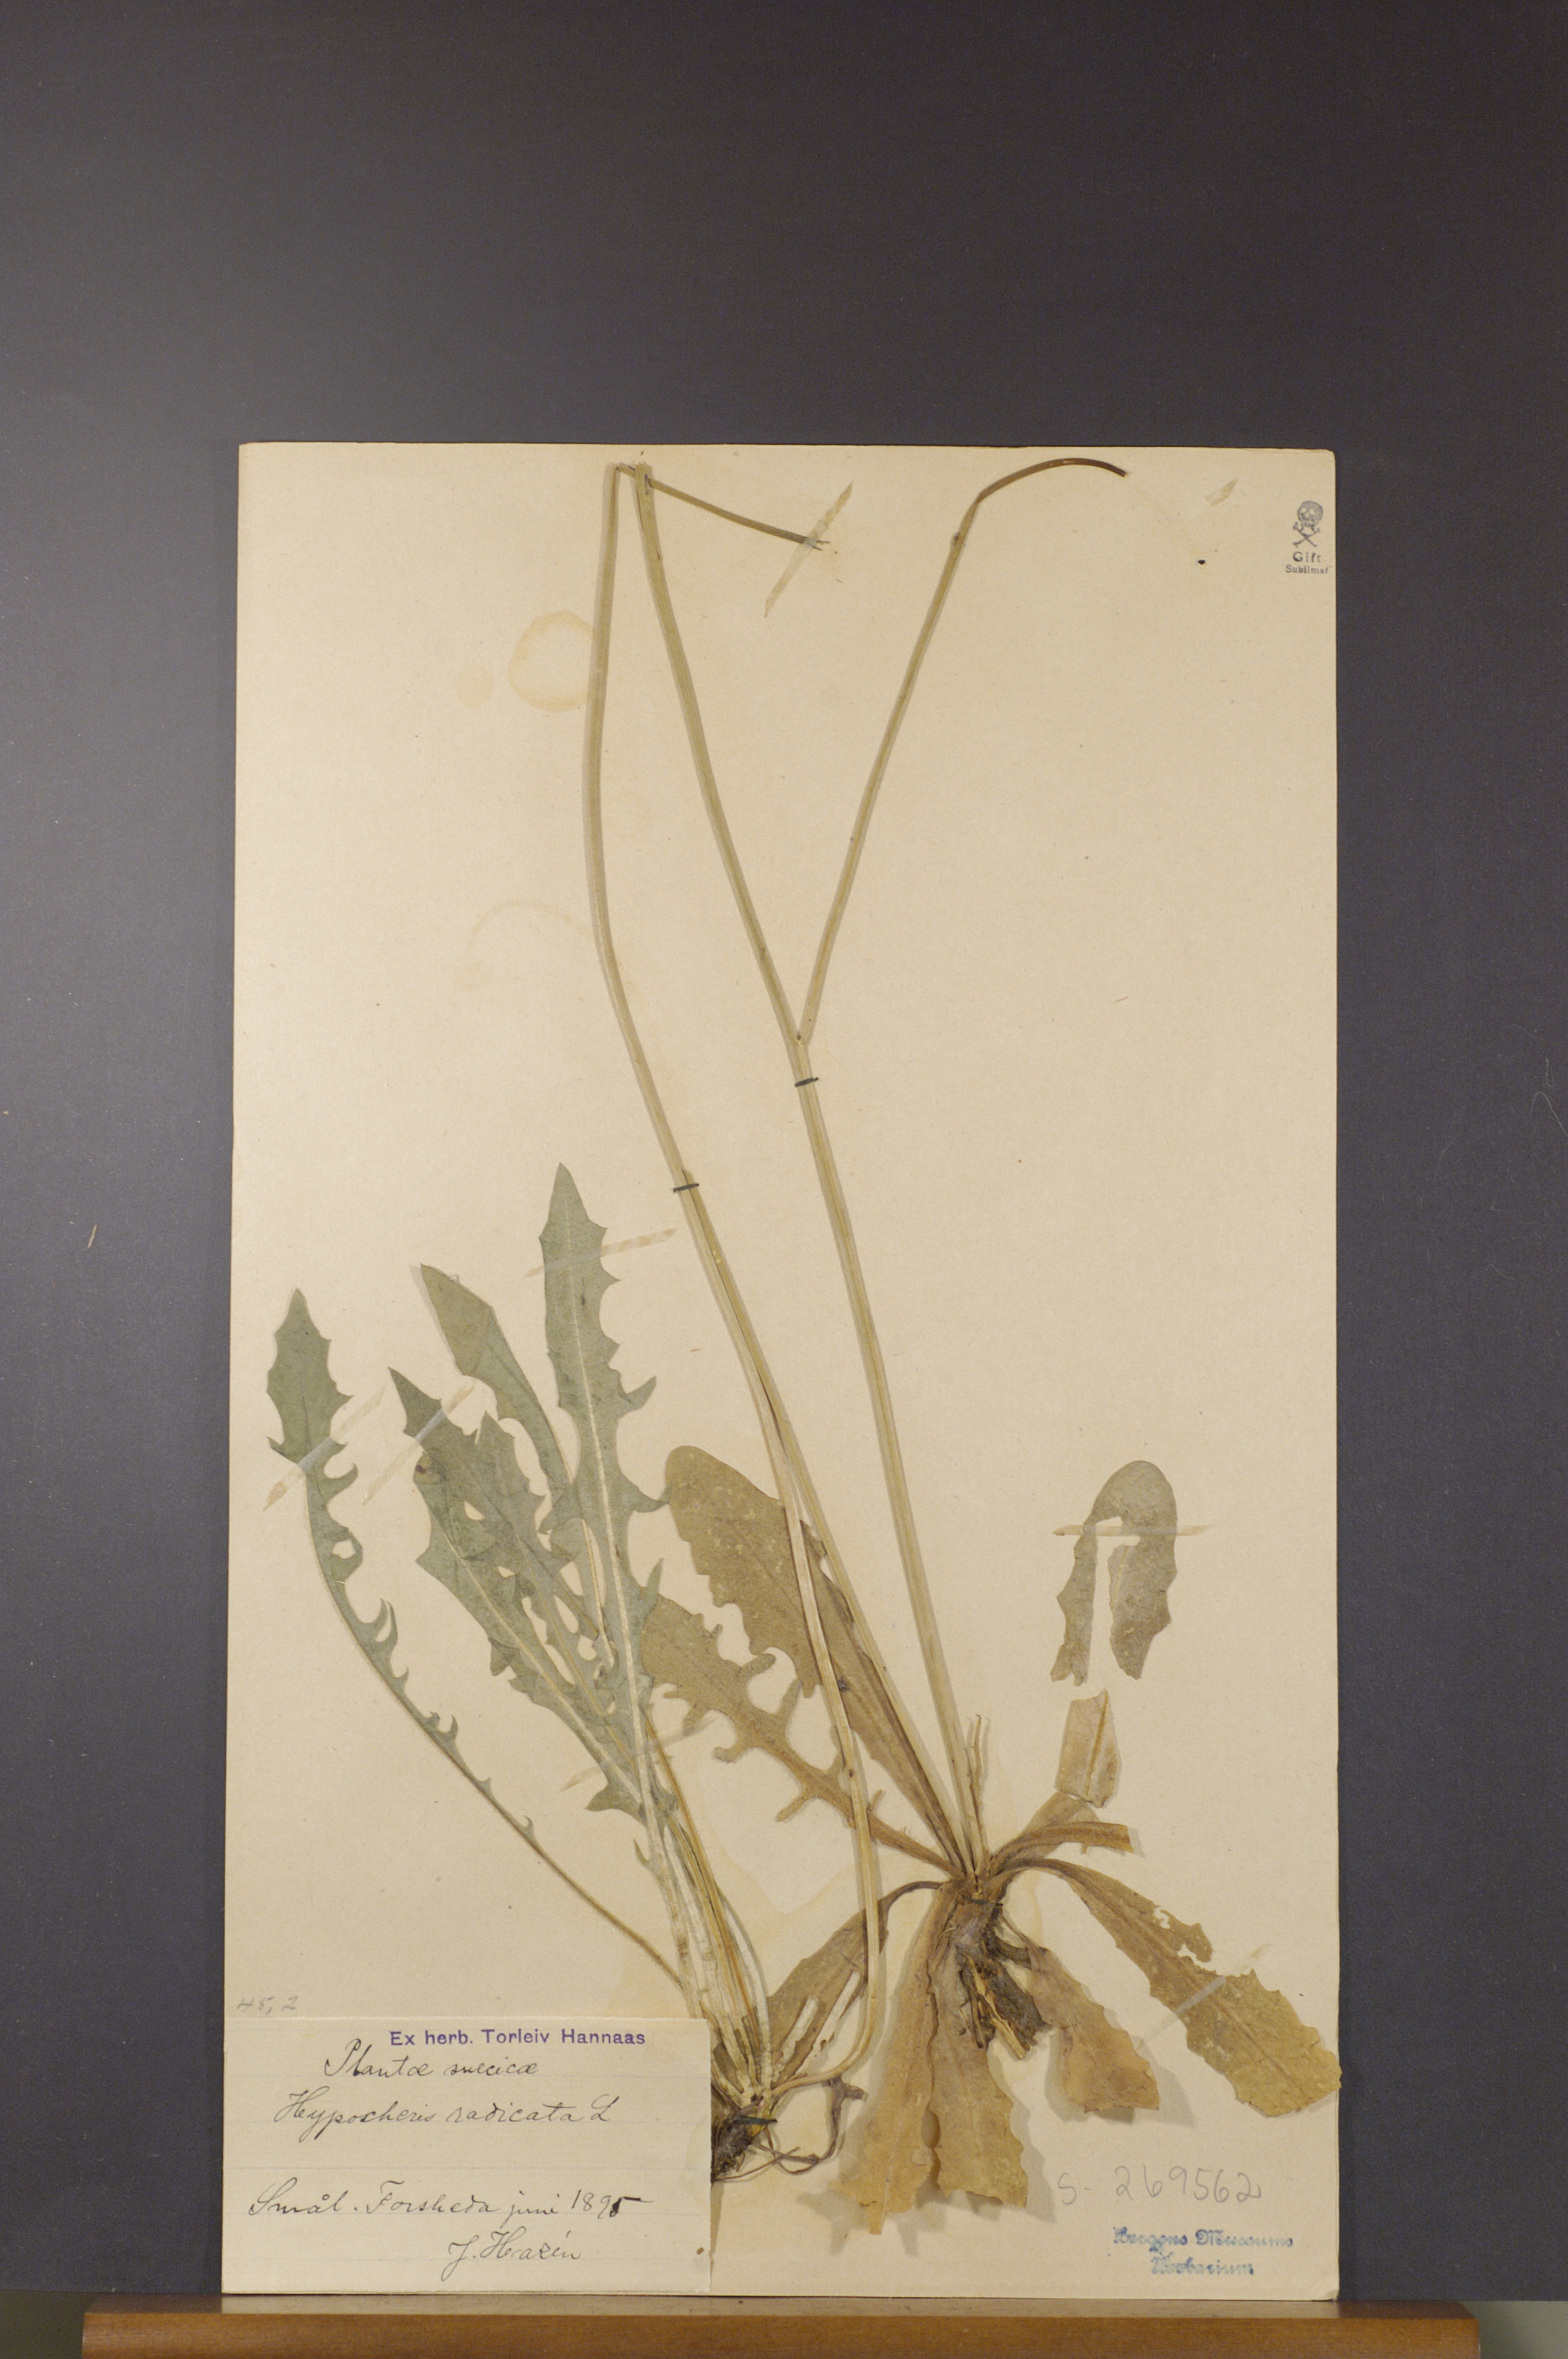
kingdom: Plantae
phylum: Tracheophyta
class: Magnoliopsida
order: Asterales
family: Asteraceae
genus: Hypochaeris
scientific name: Hypochaeris radicata
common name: Flatweed
